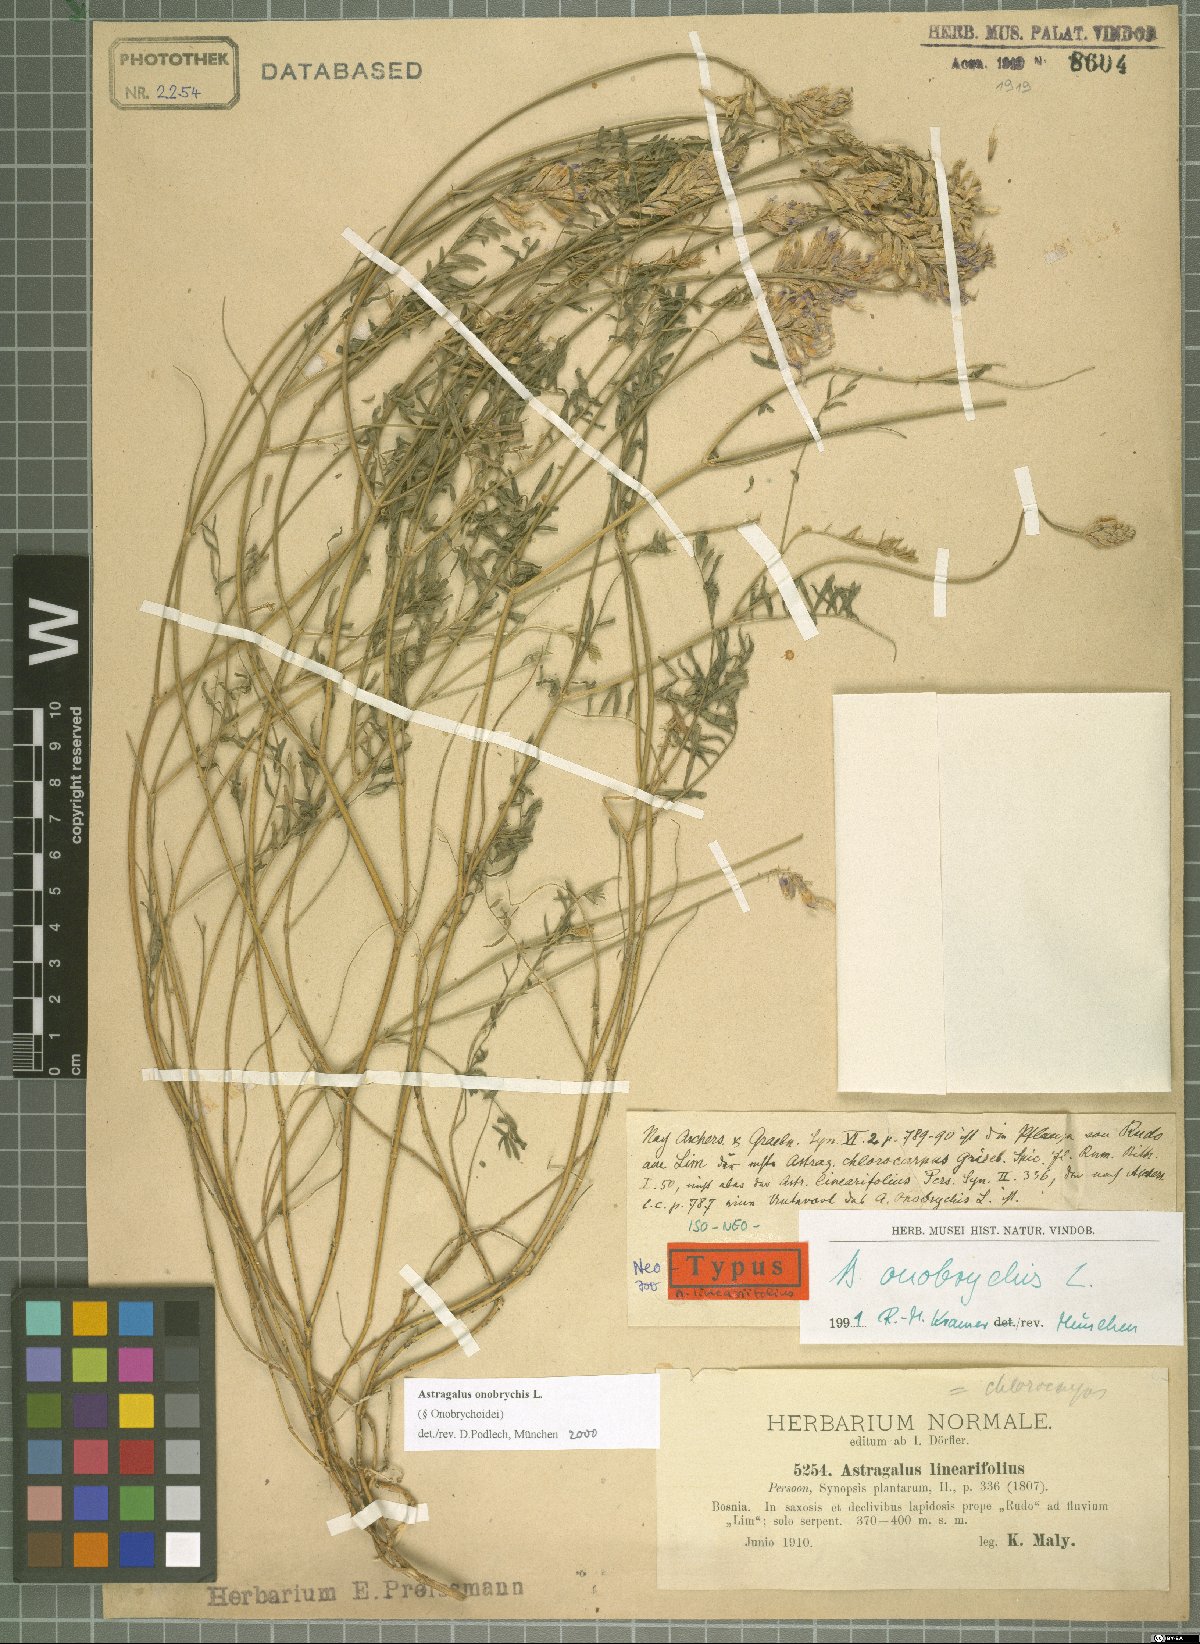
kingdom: Plantae
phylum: Tracheophyta
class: Magnoliopsida
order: Fabales
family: Fabaceae
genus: Astragalus
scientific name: Astragalus onobrychis
